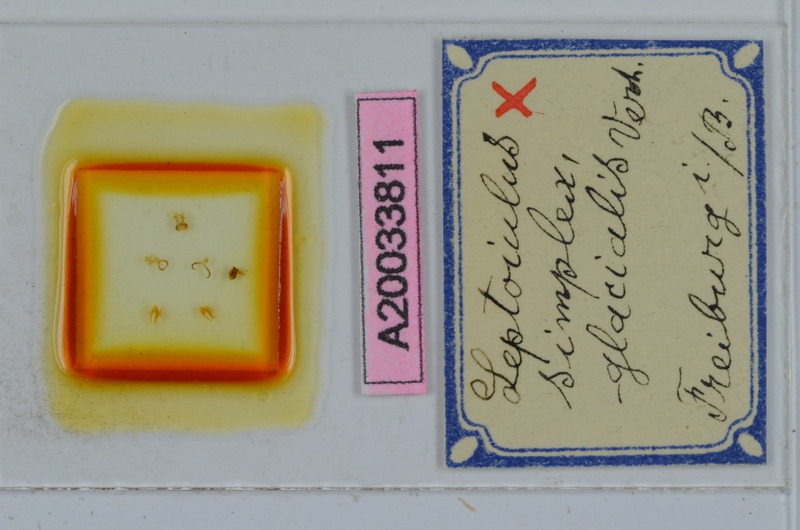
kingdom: Animalia
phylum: Arthropoda
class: Diplopoda
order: Julida
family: Julidae
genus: Leptoiulus
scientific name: Leptoiulus simplex
